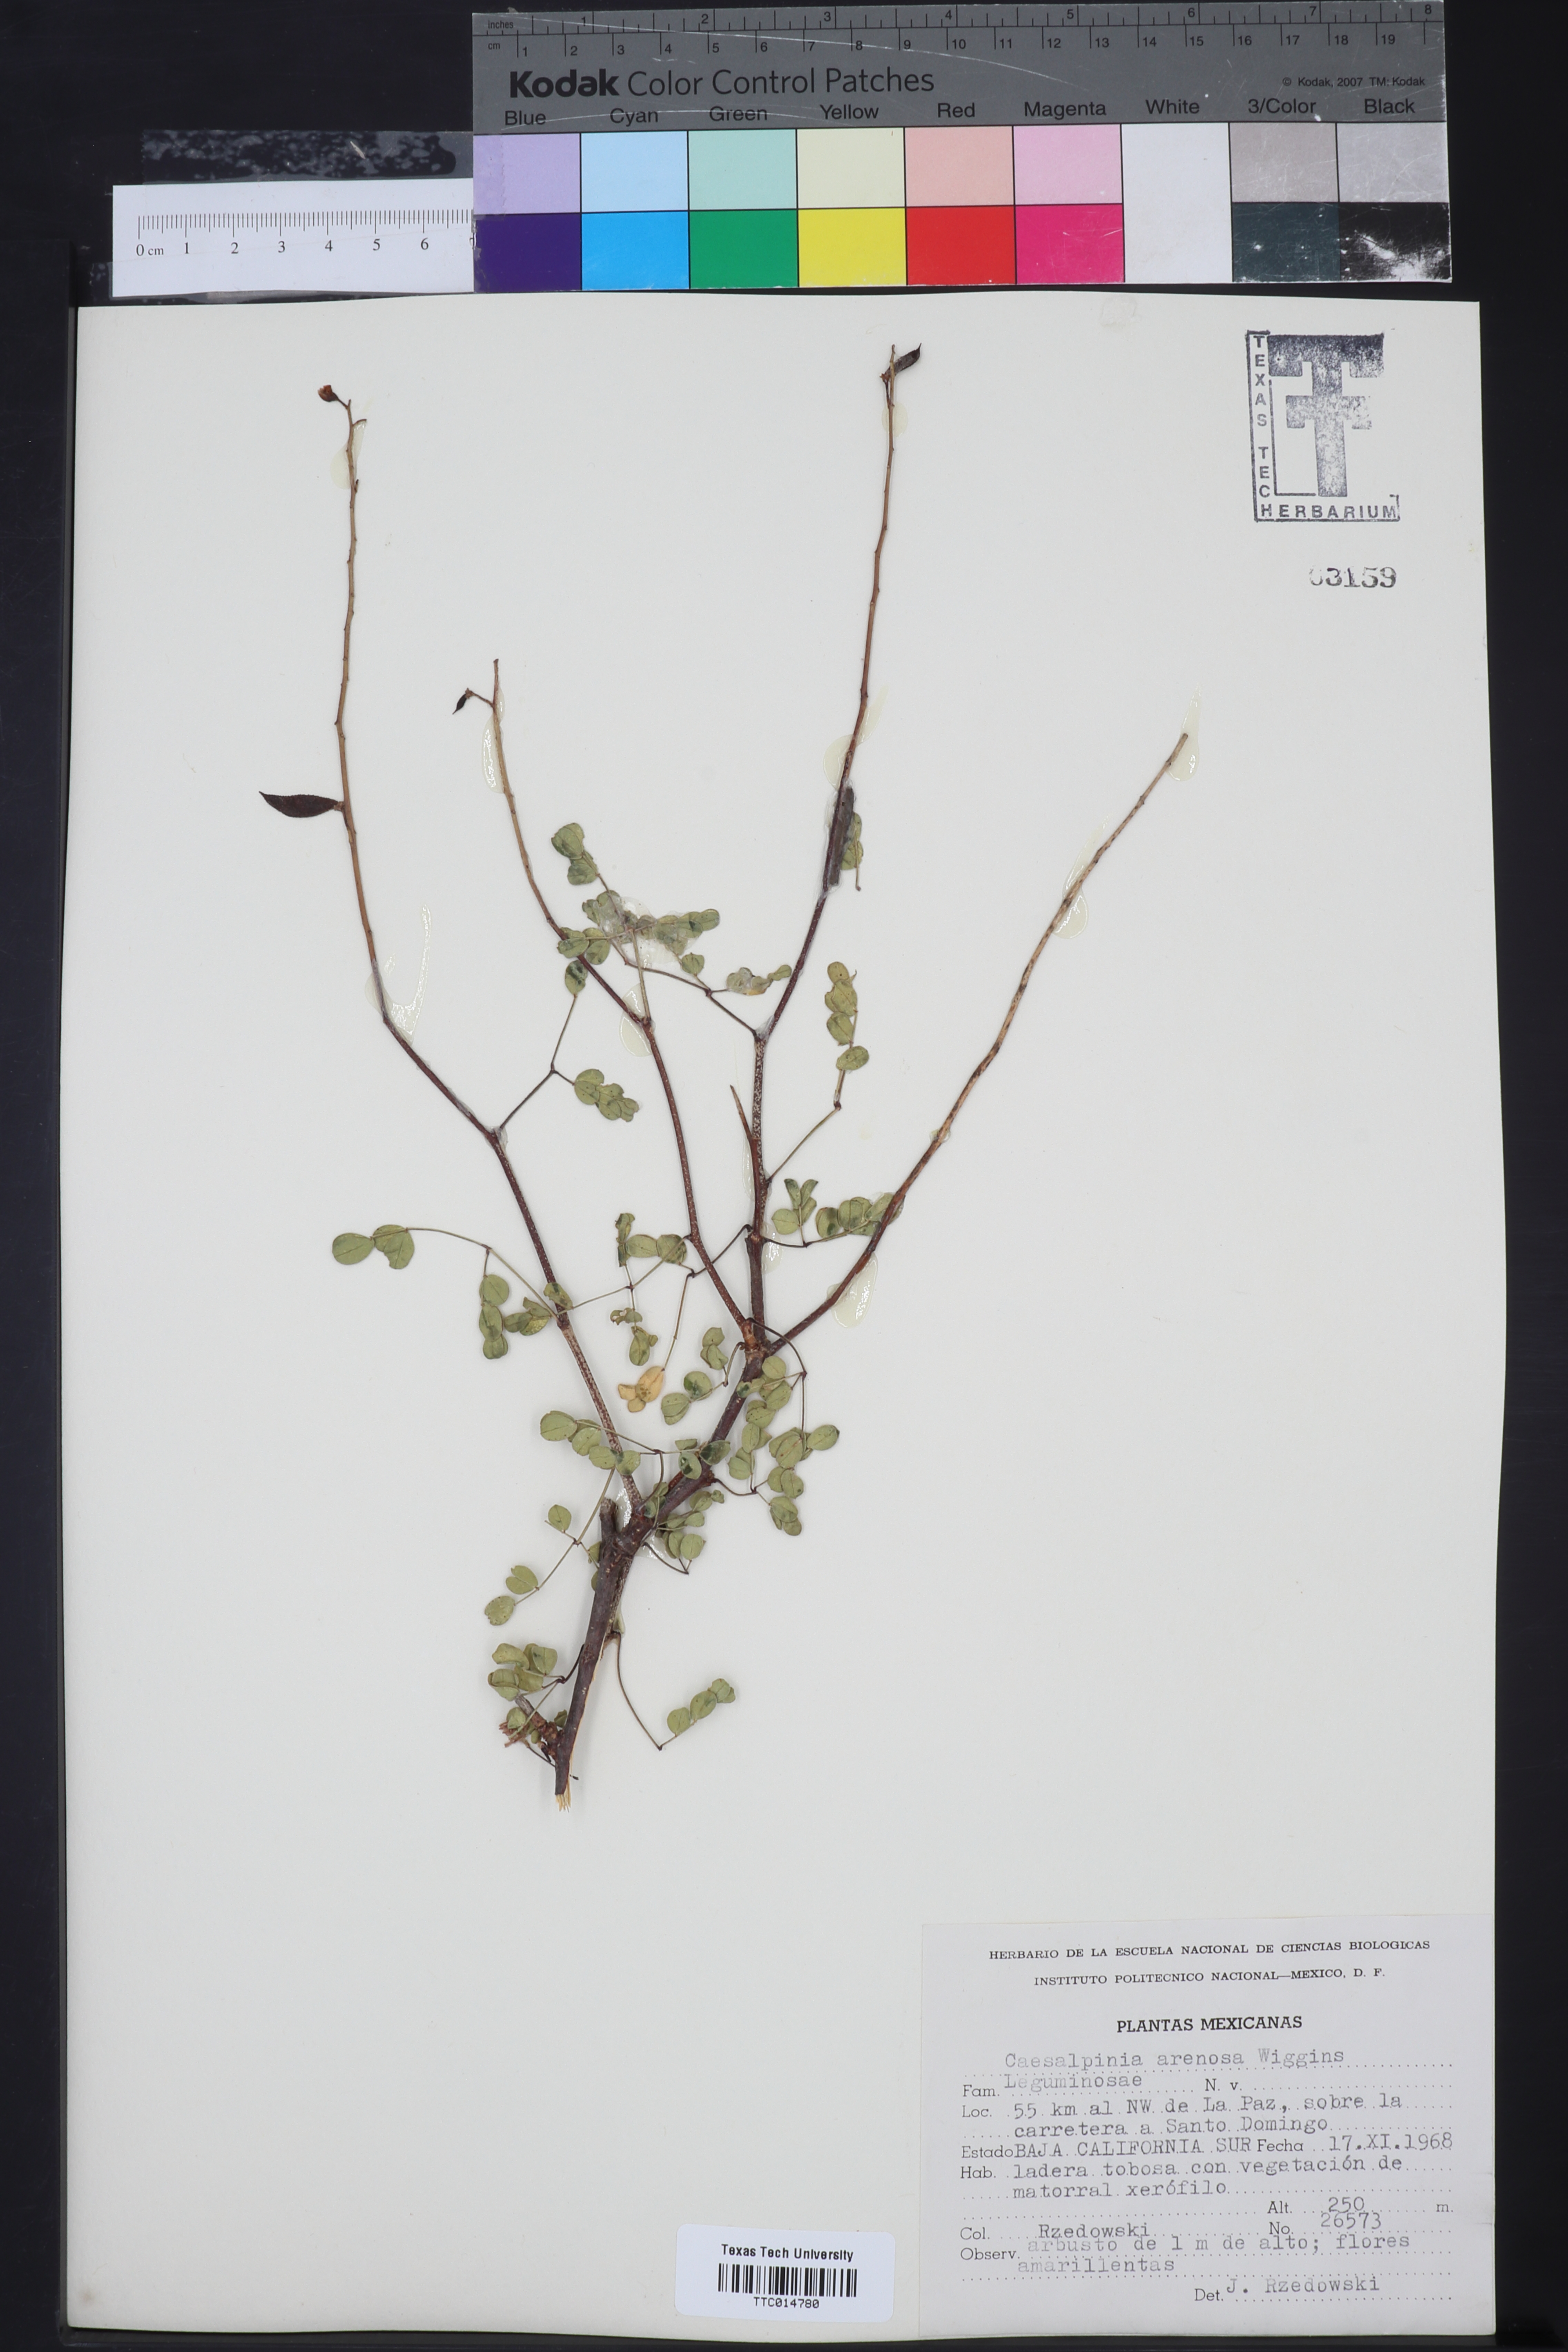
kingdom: Plantae
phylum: Tracheophyta
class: Magnoliopsida
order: Fabales
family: Fabaceae
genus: Erythrostemon
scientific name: Erythrostemon pannosus
